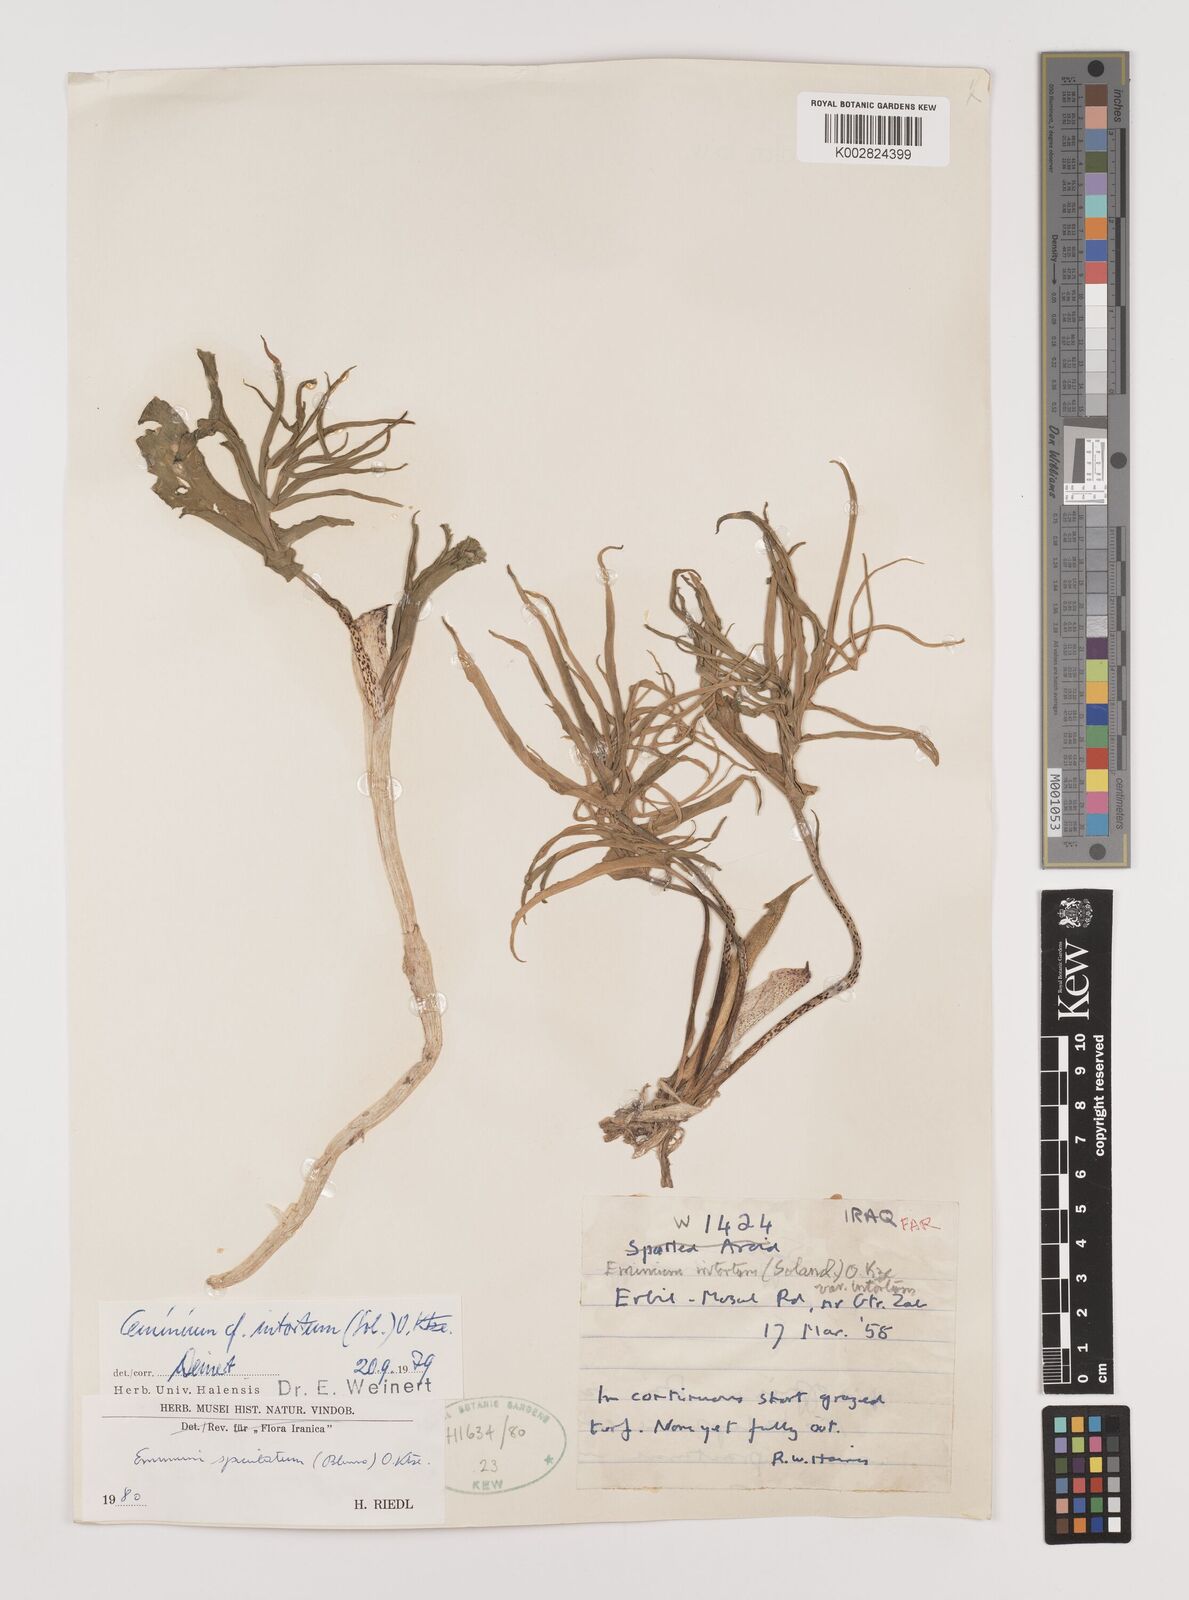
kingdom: Plantae
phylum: Tracheophyta
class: Liliopsida
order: Alismatales
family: Araceae
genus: Eminium
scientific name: Eminium spiculatum
